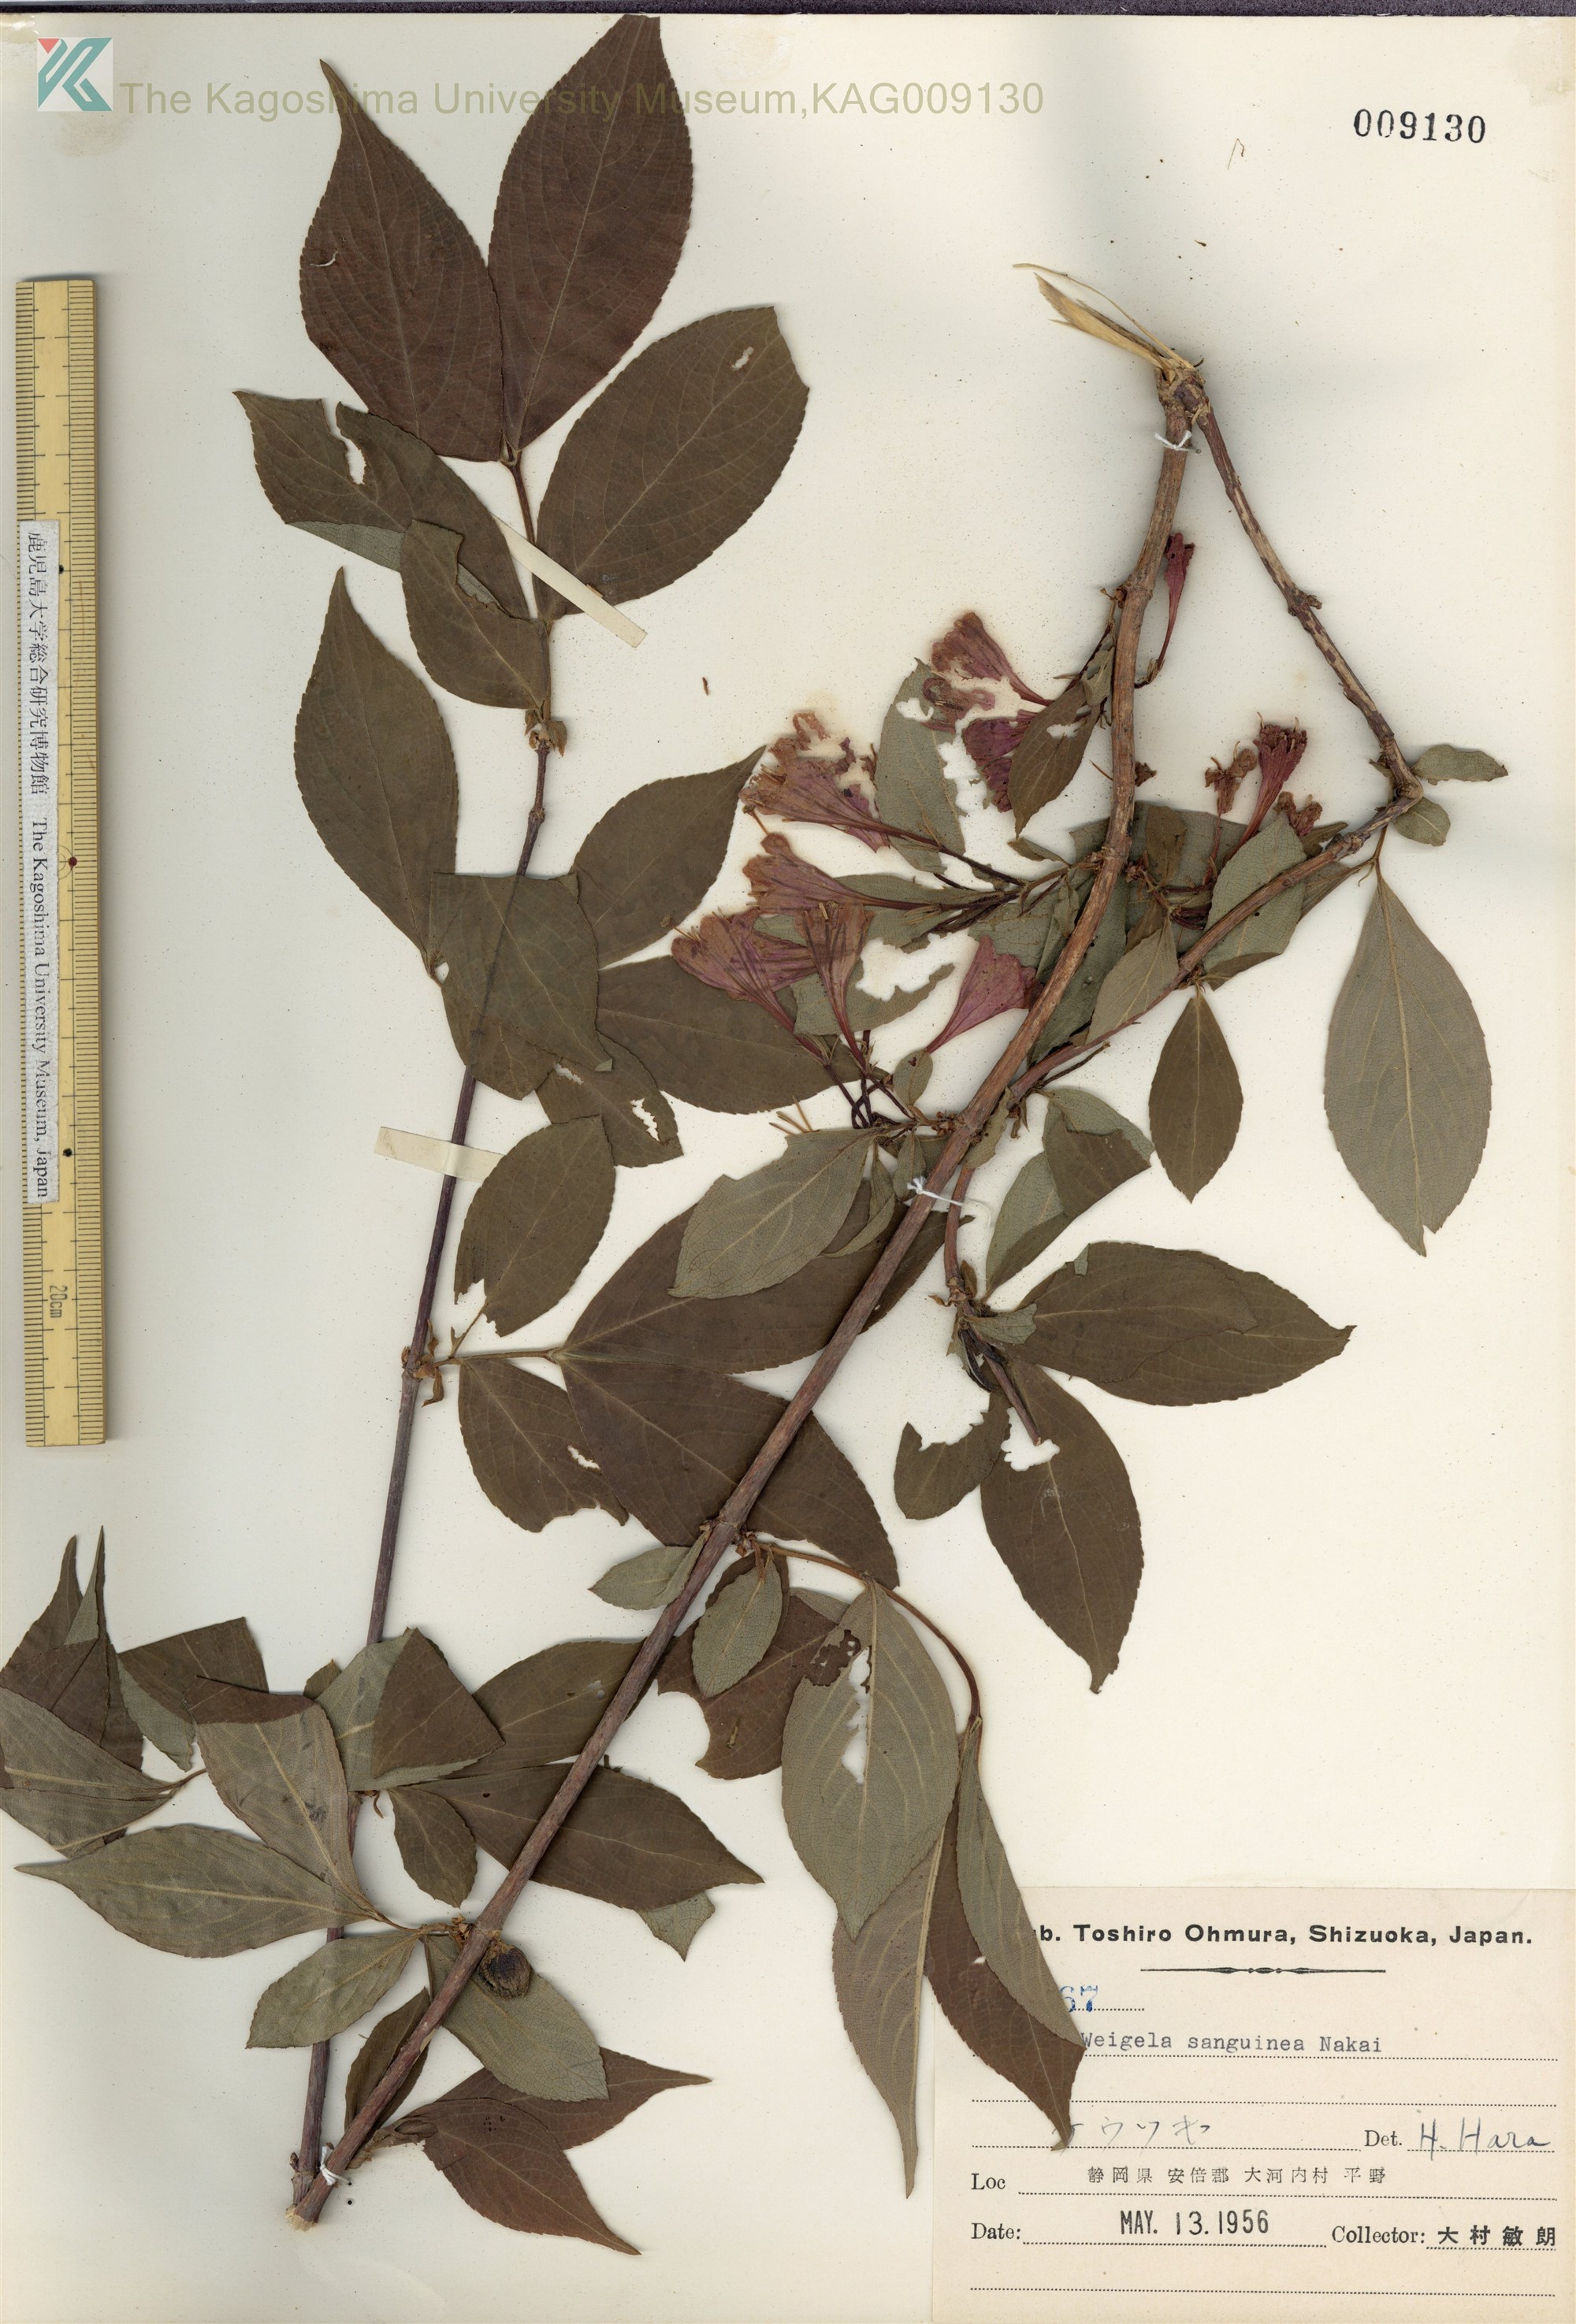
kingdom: Plantae
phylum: Tracheophyta
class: Magnoliopsida
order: Dipsacales
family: Caprifoliaceae
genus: Weigela
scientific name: Weigela decora
